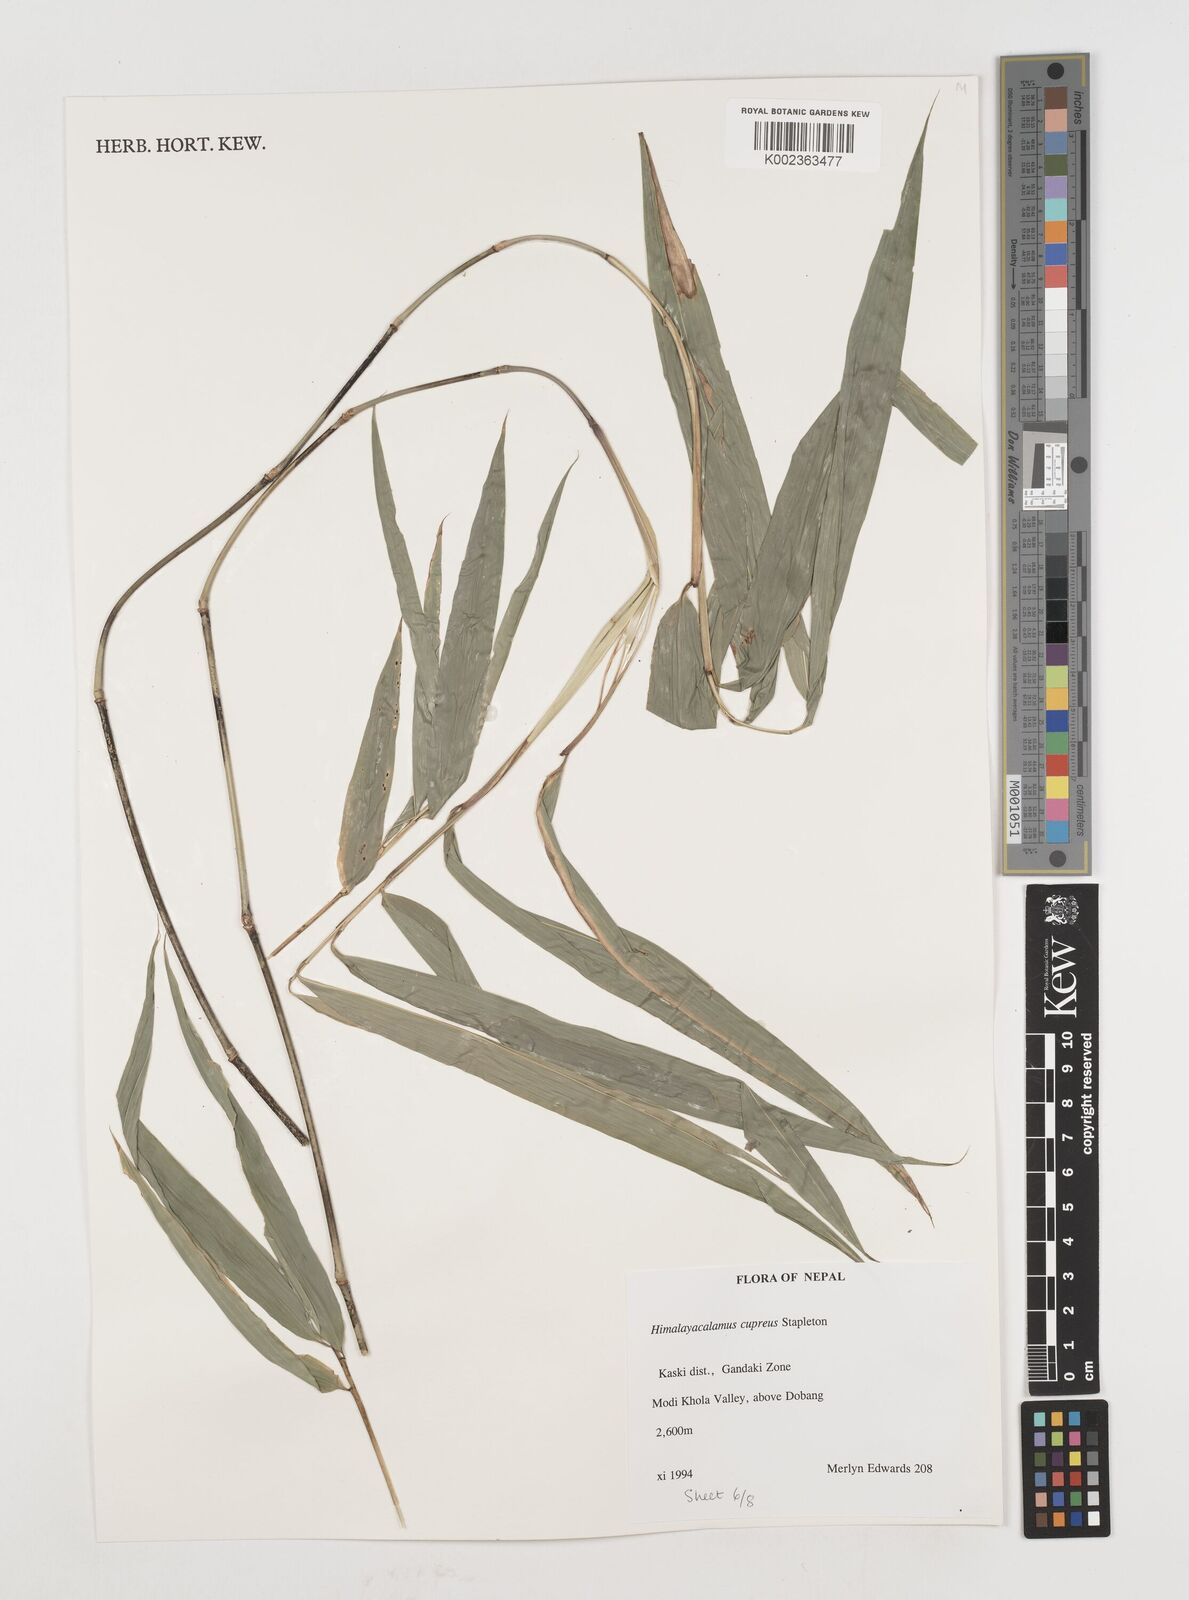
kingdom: Plantae
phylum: Tracheophyta
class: Liliopsida
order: Poales
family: Poaceae
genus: Himalayacalamus
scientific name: Himalayacalamus cupreus
